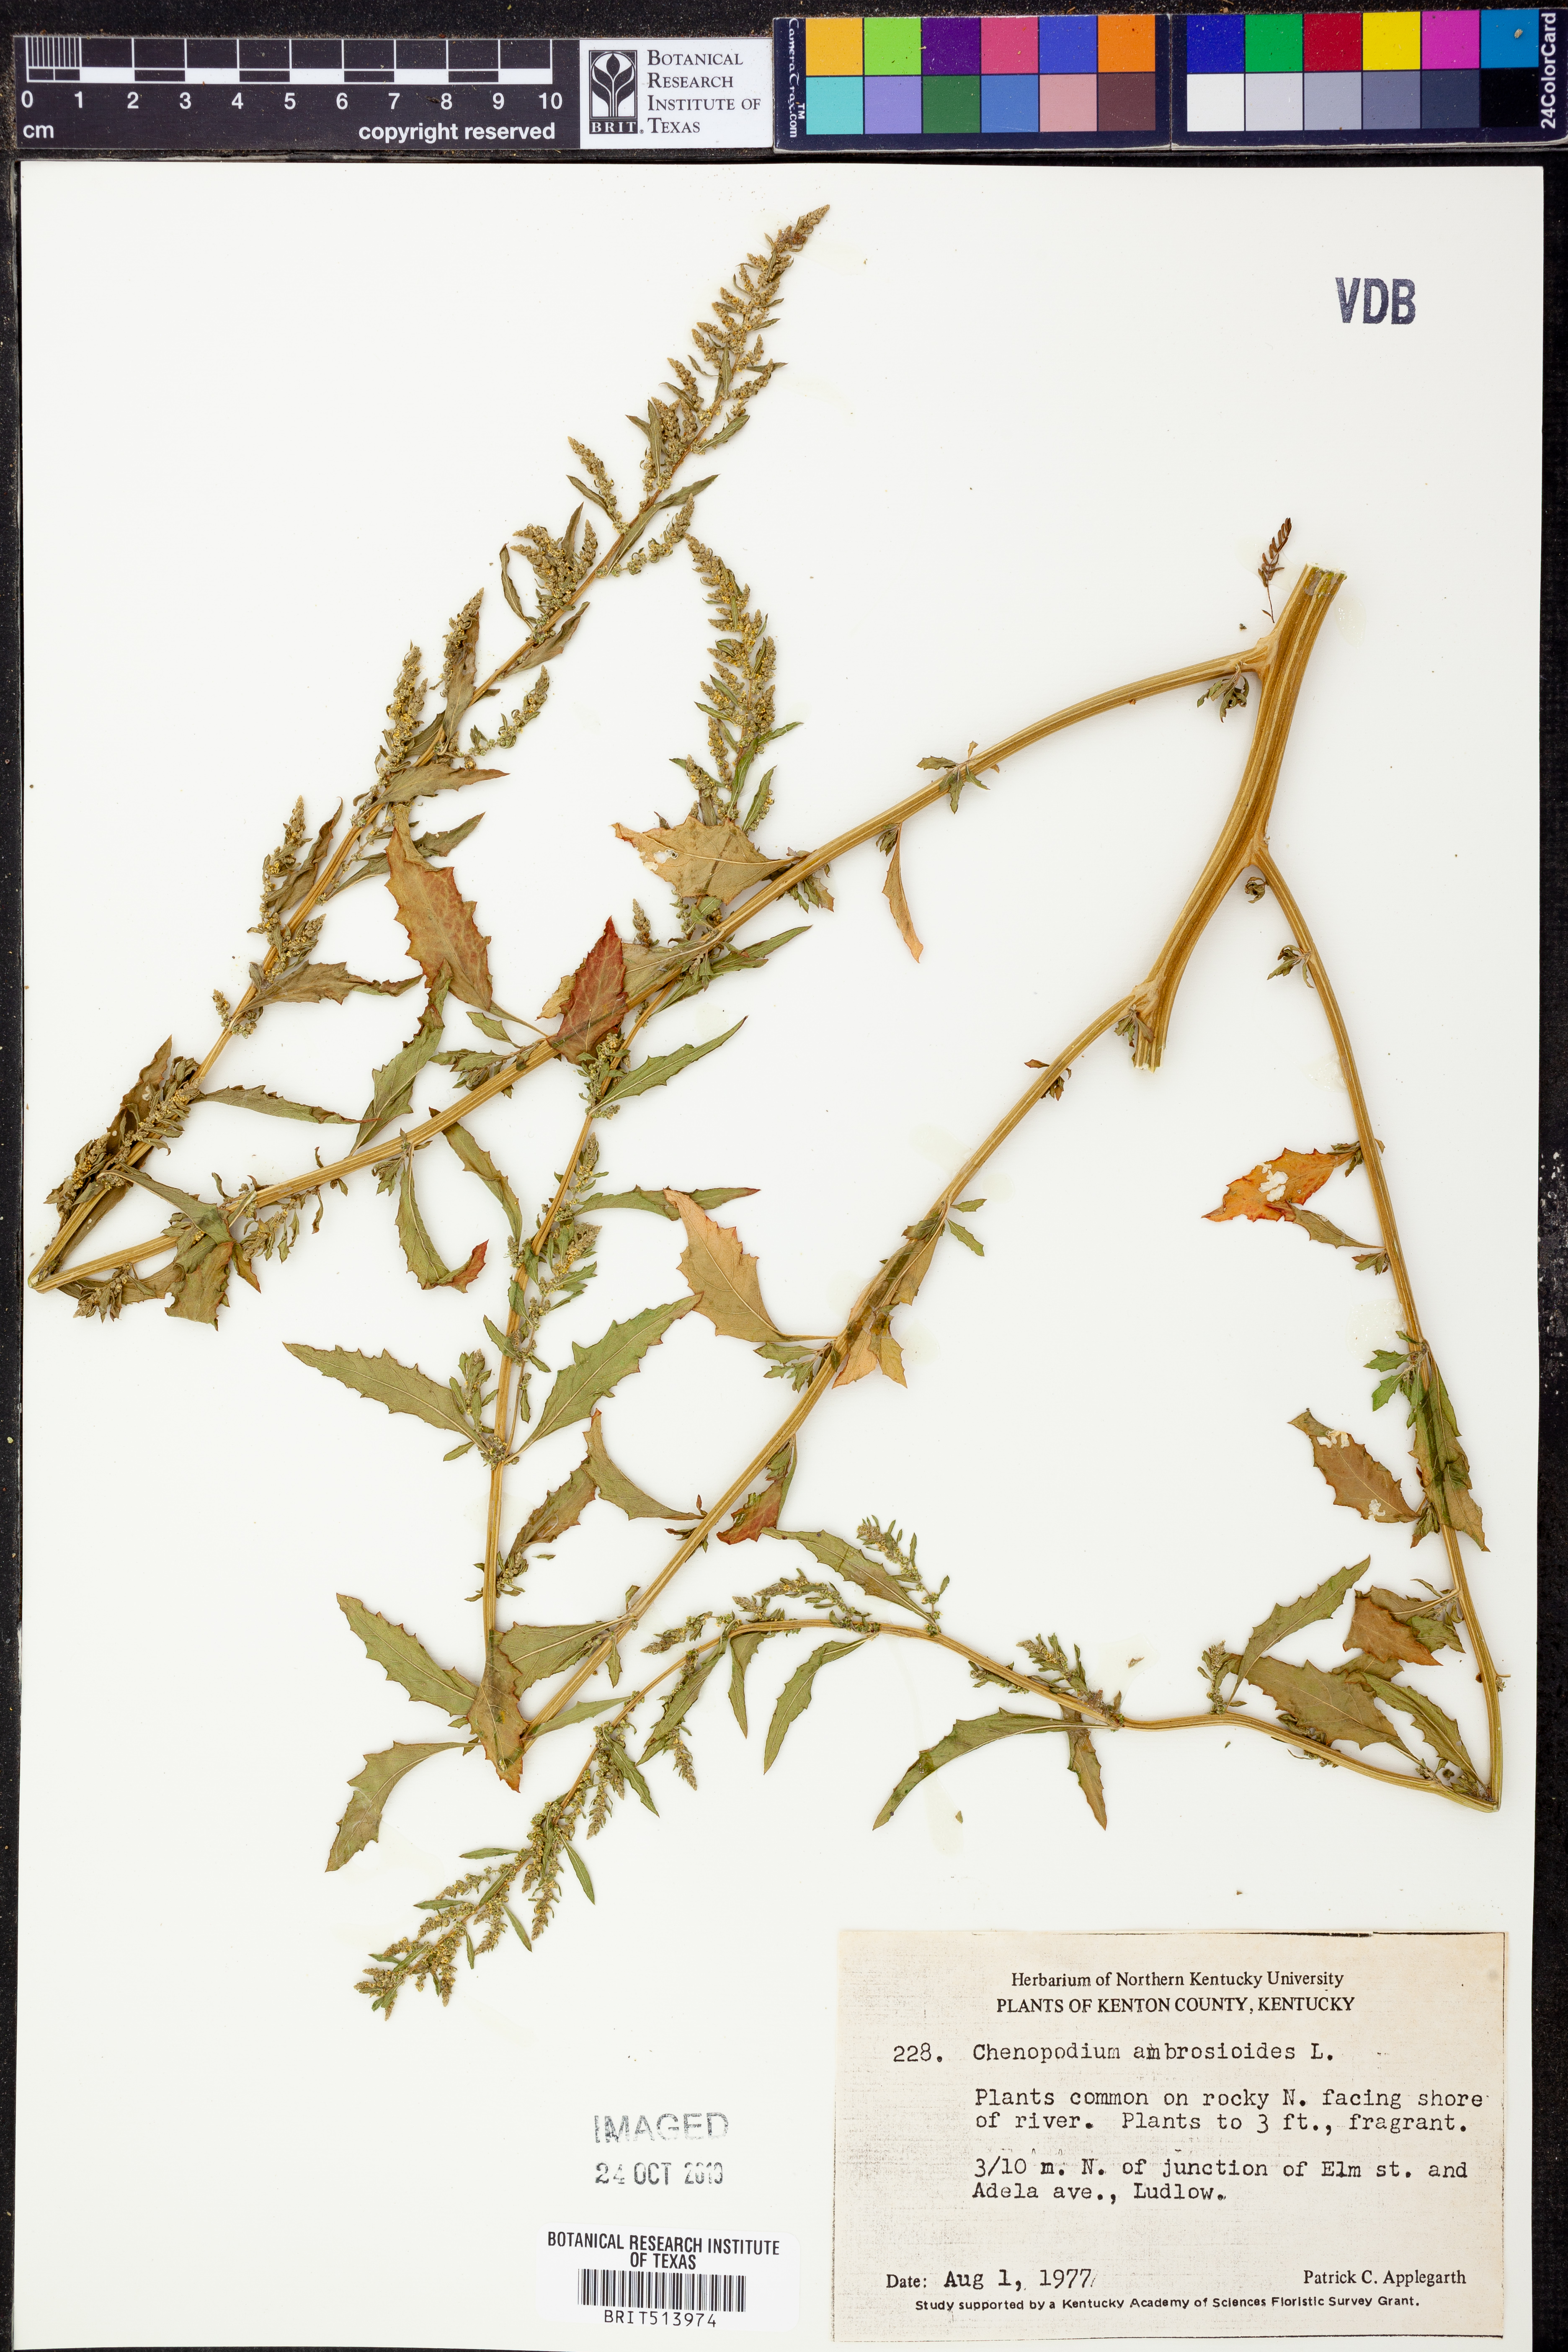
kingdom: Plantae
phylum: Tracheophyta
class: Magnoliopsida
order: Caryophyllales
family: Amaranthaceae
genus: Dysphania
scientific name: Dysphania ambrosioides
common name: Wormseed
